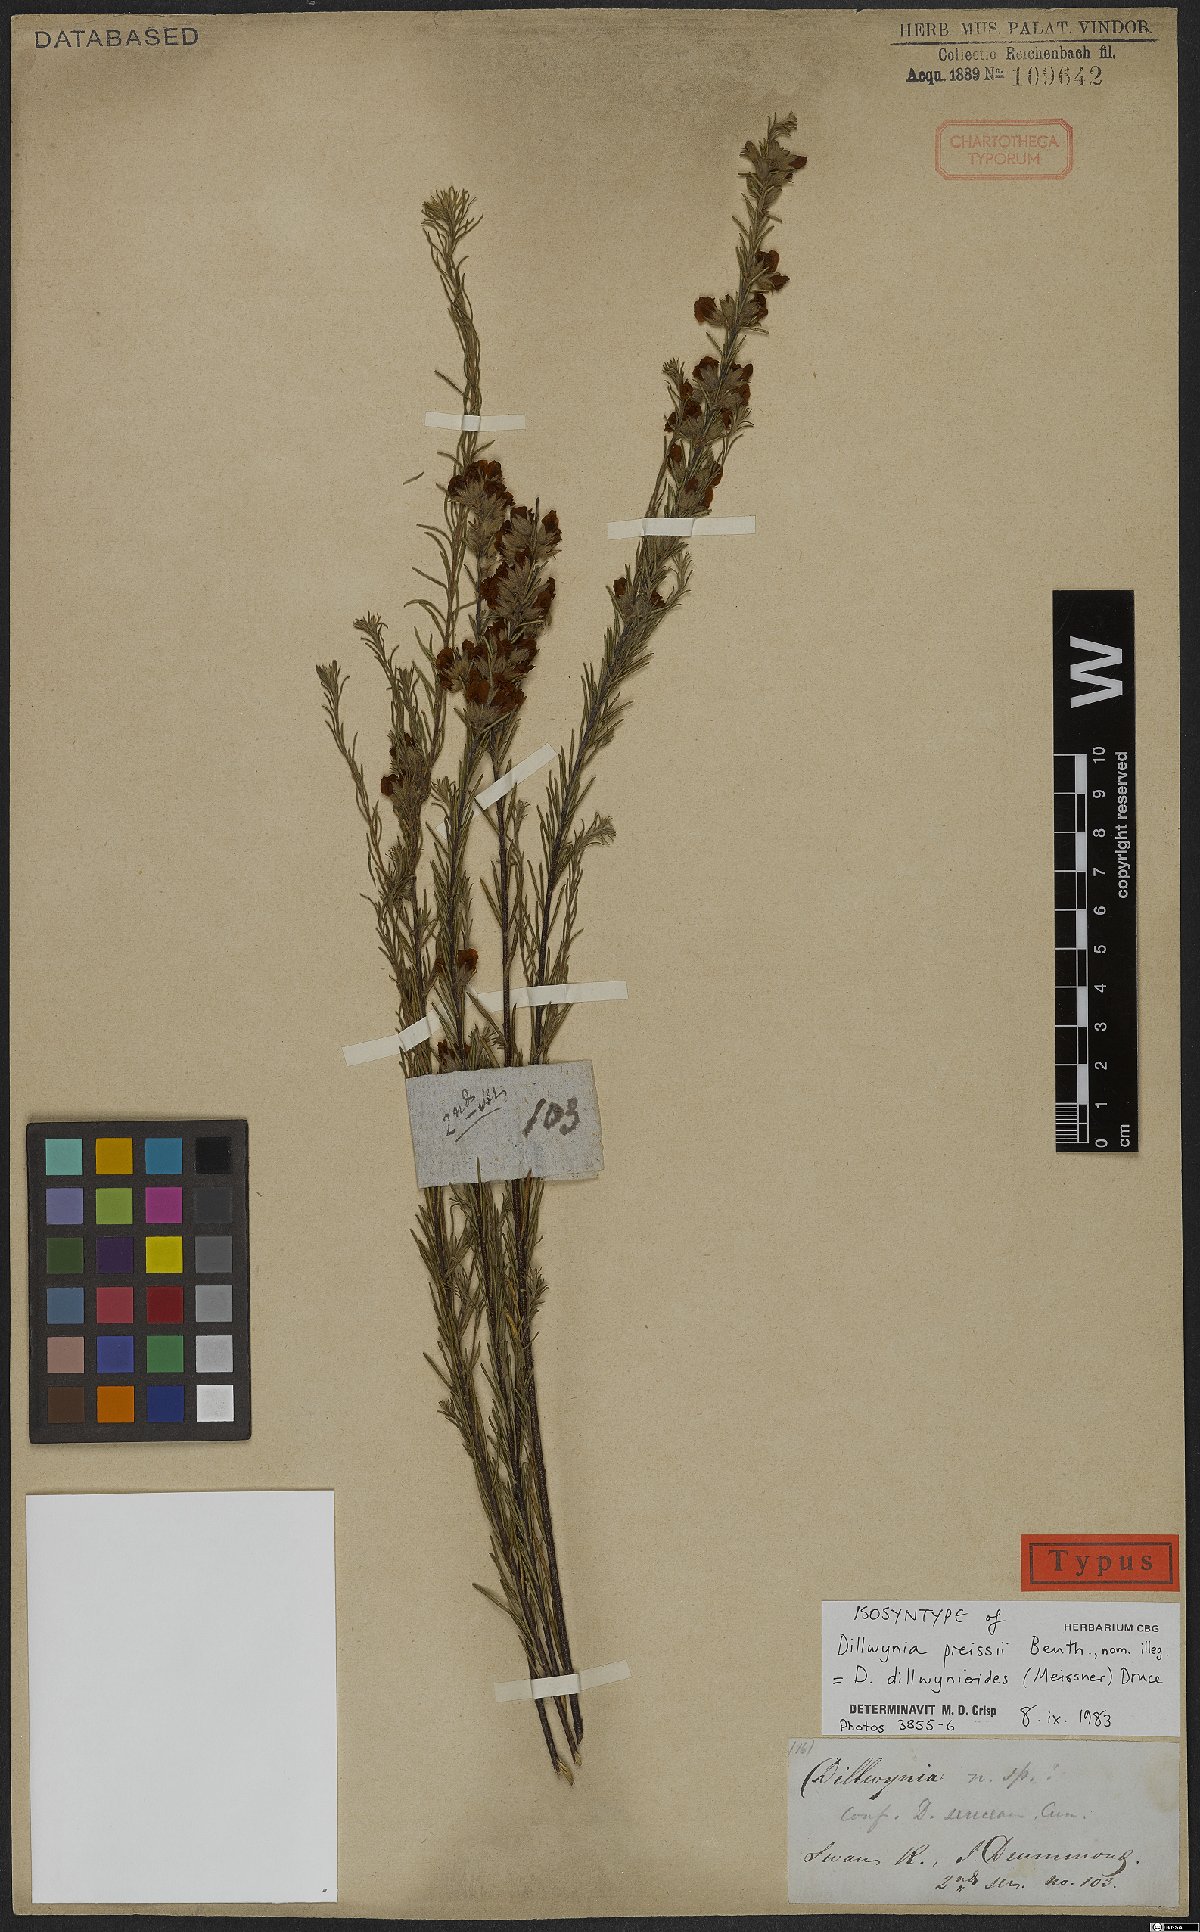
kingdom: Plantae
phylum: Tracheophyta
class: Magnoliopsida
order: Fabales
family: Fabaceae
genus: Dillwynia
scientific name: Dillwynia dillwynioides
